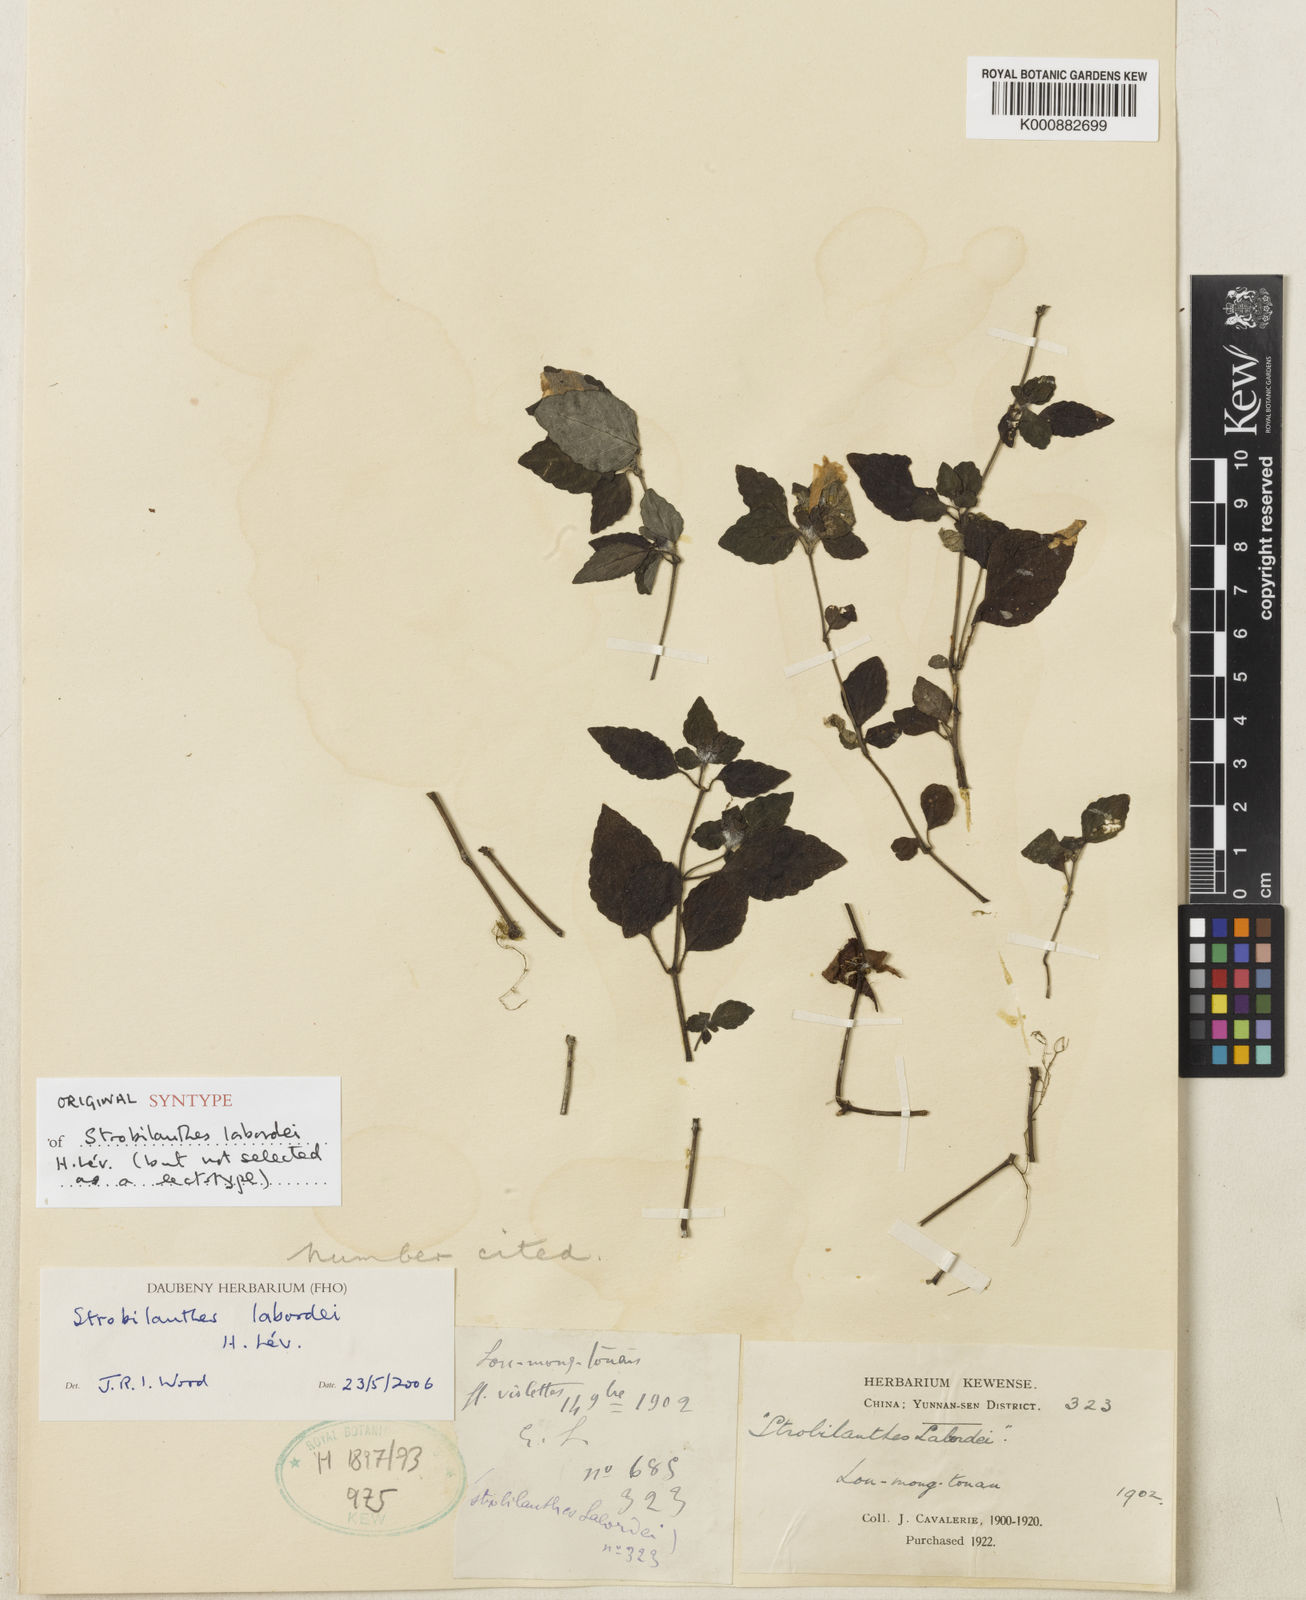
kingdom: Plantae
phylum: Tracheophyta
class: Magnoliopsida
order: Lamiales
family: Acanthaceae
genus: Strobilanthes
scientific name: Strobilanthes
